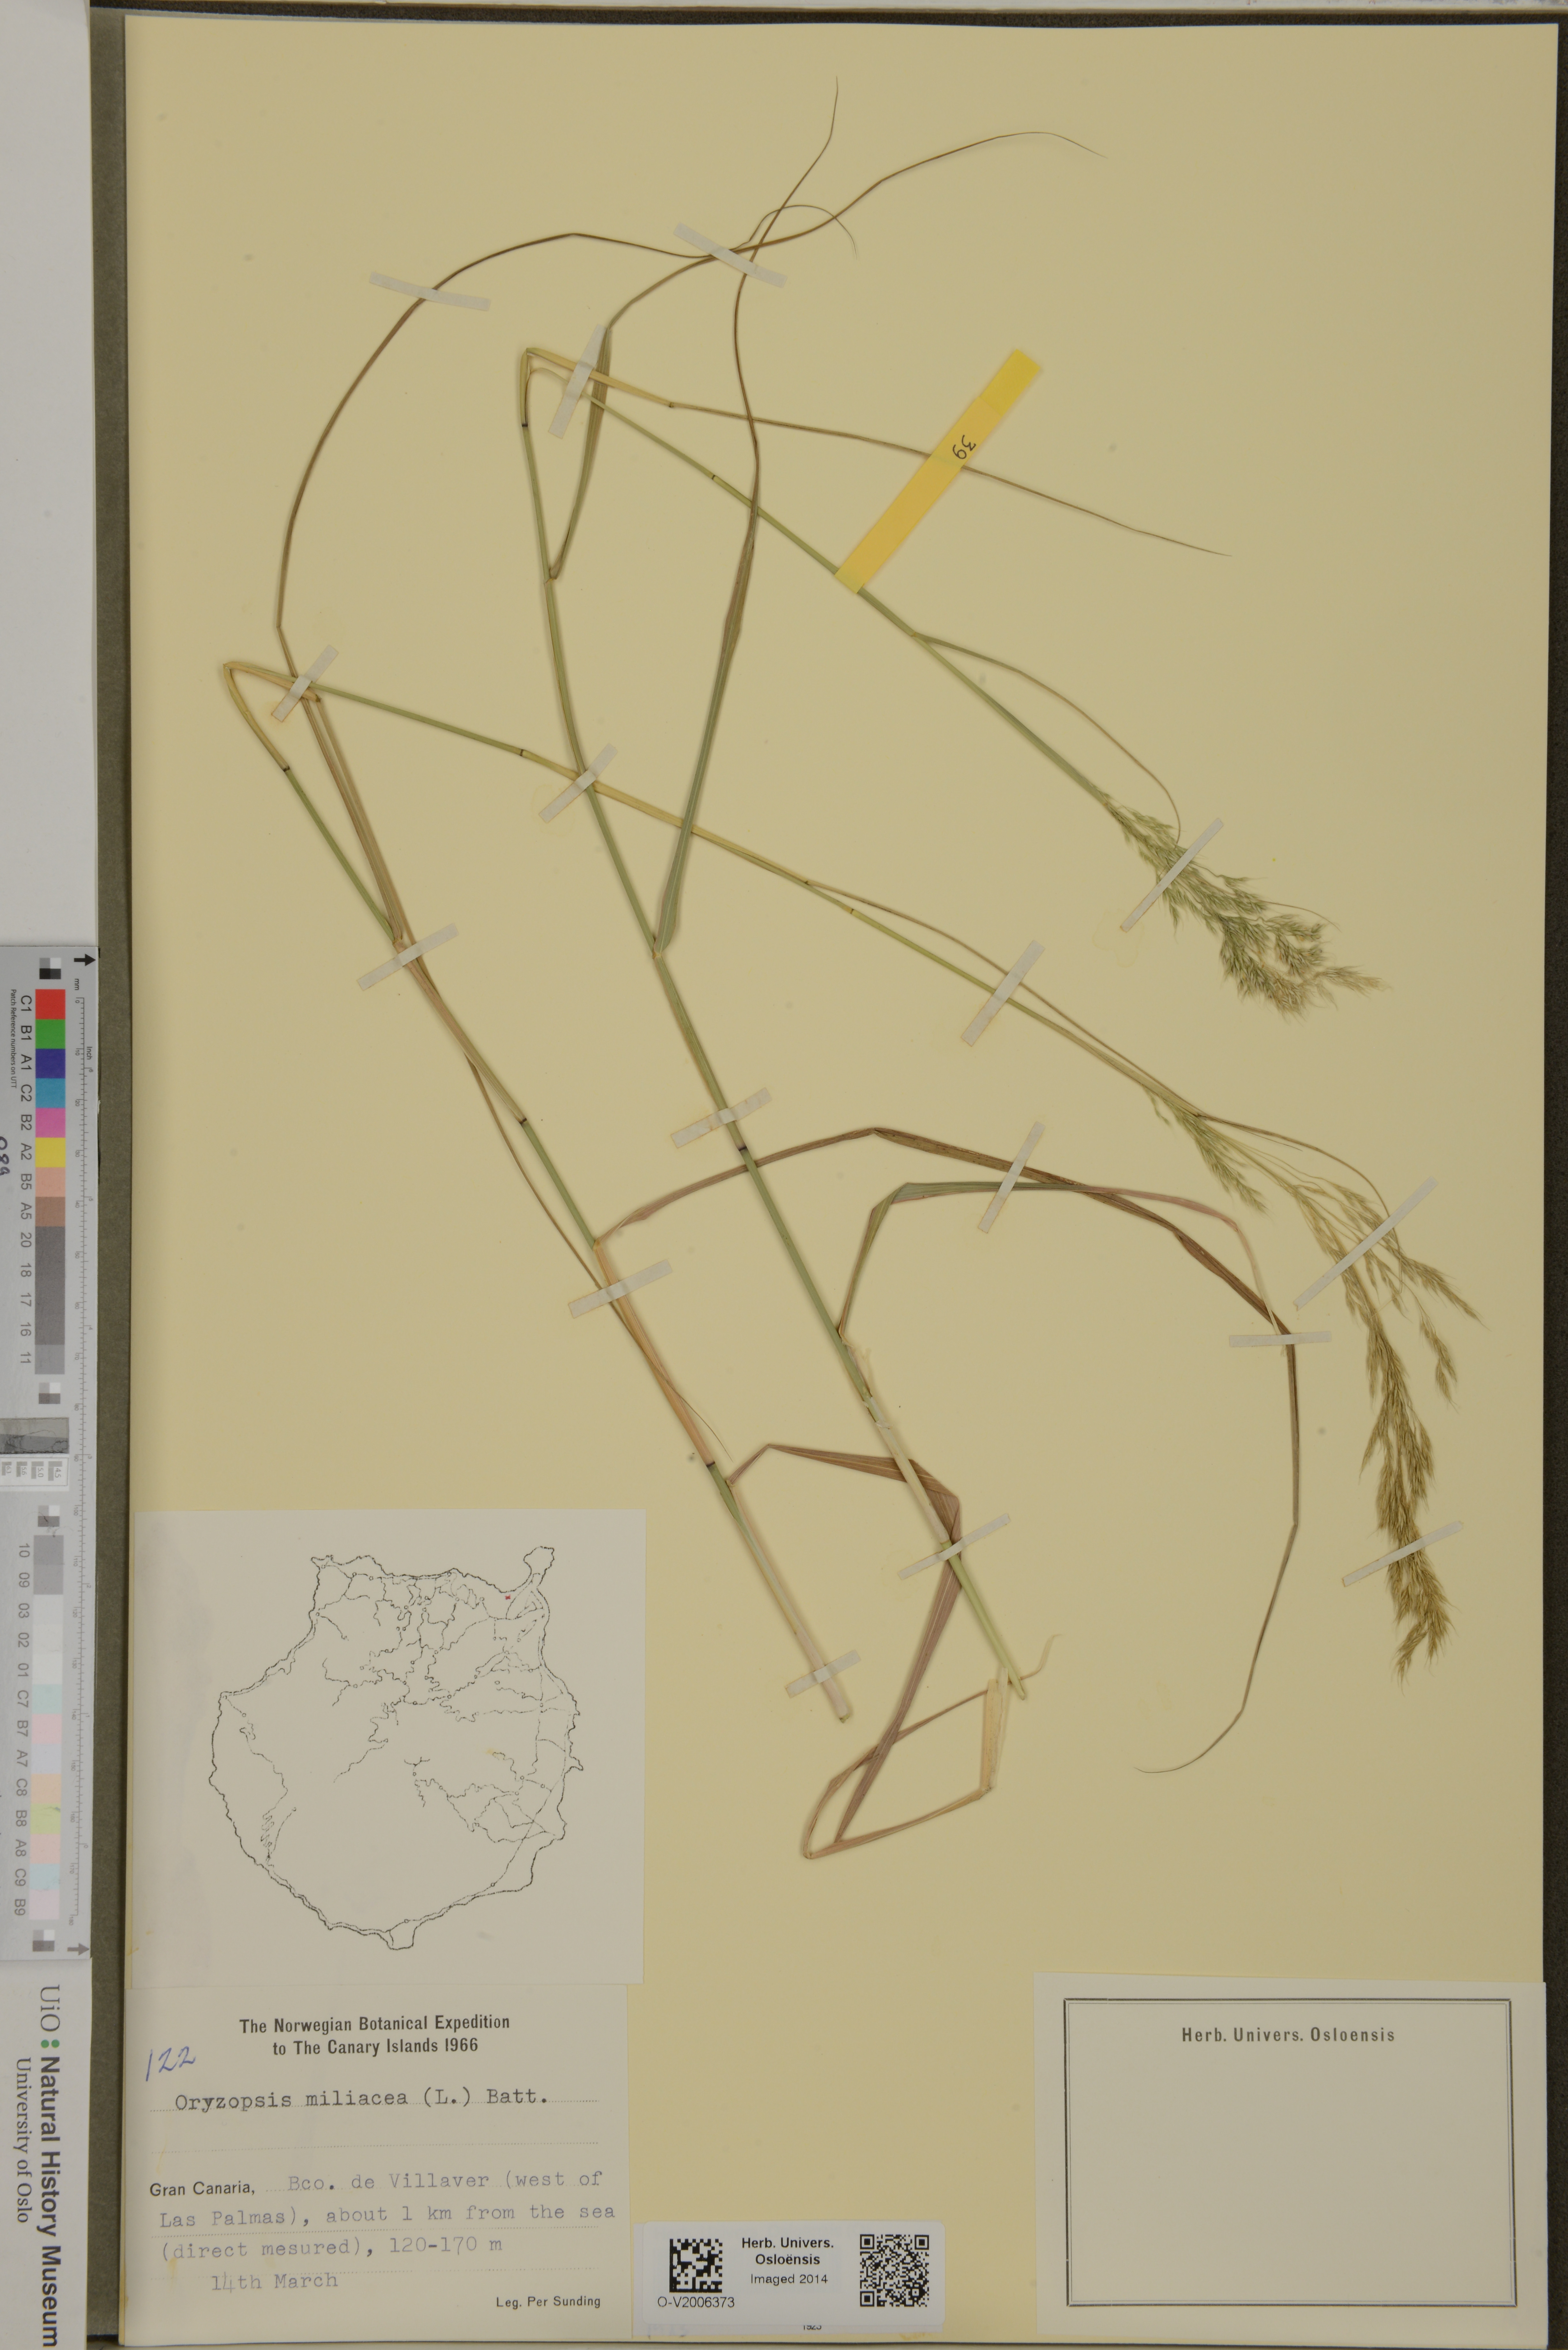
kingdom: Plantae
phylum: Tracheophyta
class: Liliopsida
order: Poales
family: Poaceae
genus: Oryzopsis
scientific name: Oryzopsis miliacea
